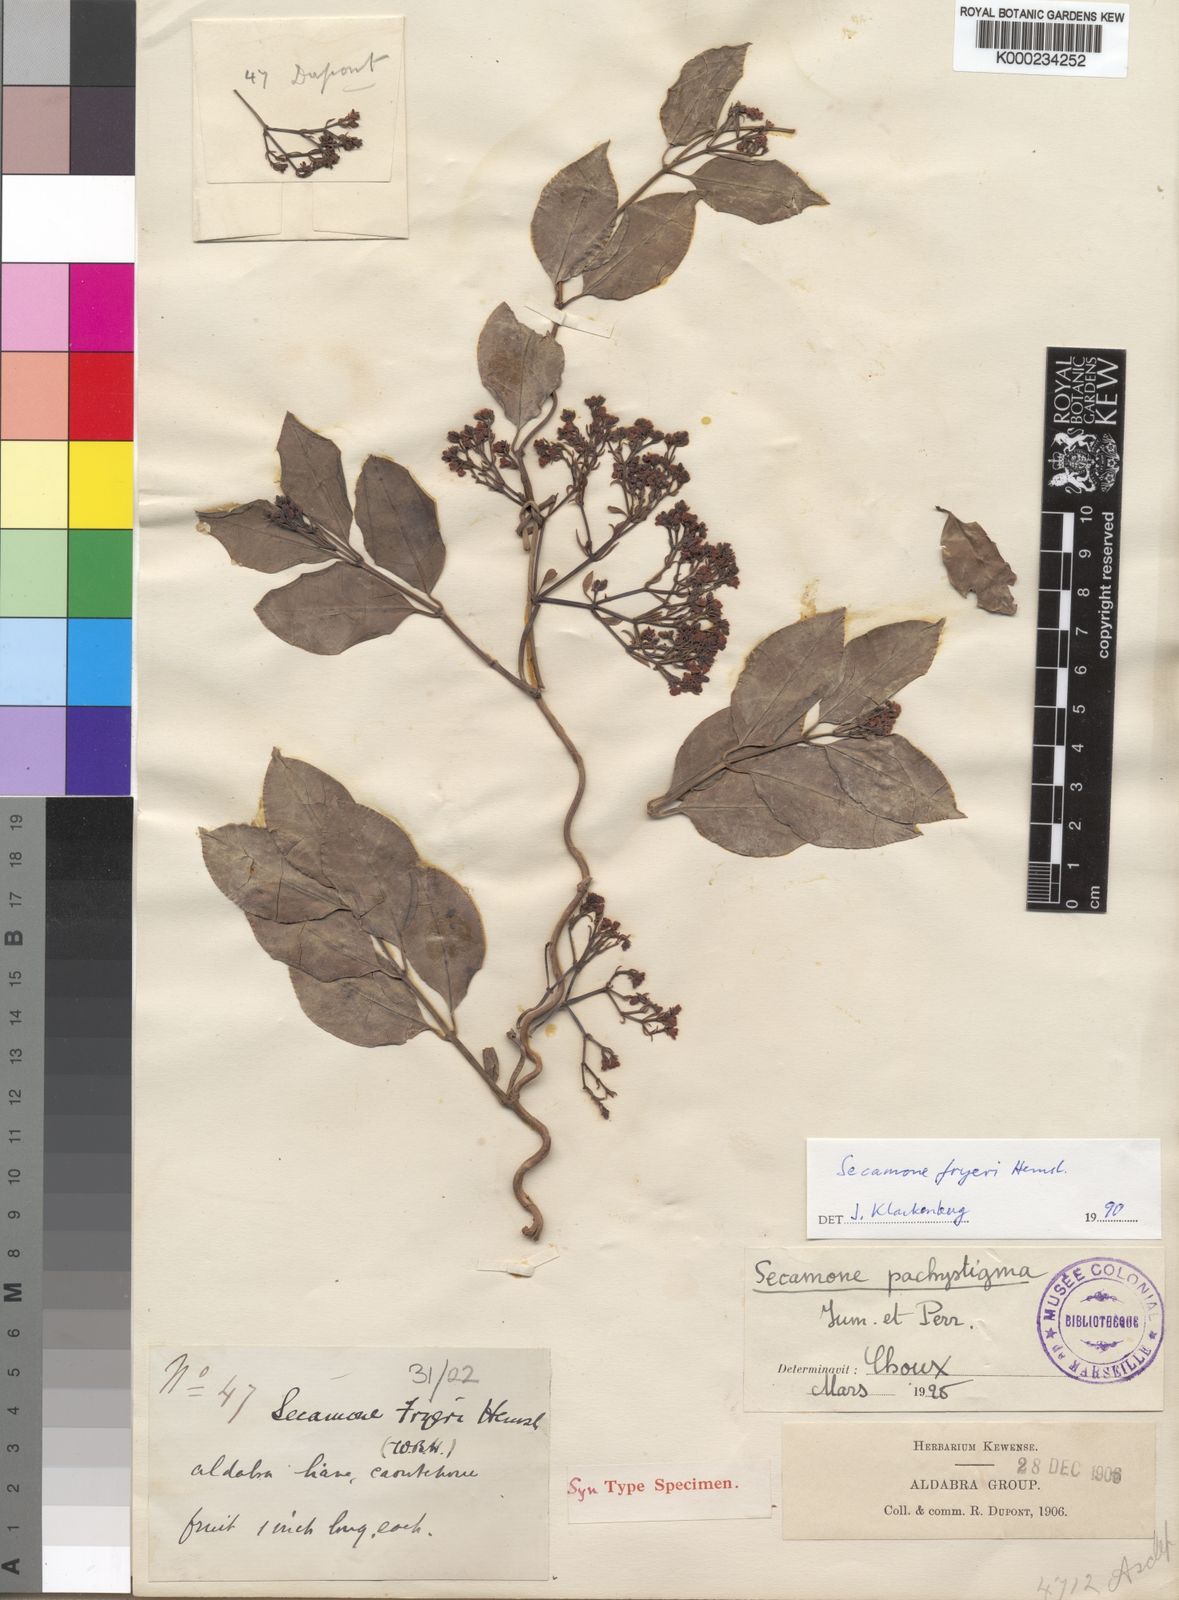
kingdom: Plantae
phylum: Tracheophyta
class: Magnoliopsida
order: Gentianales
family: Apocynaceae
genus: Secamone
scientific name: Secamone pachystigma
